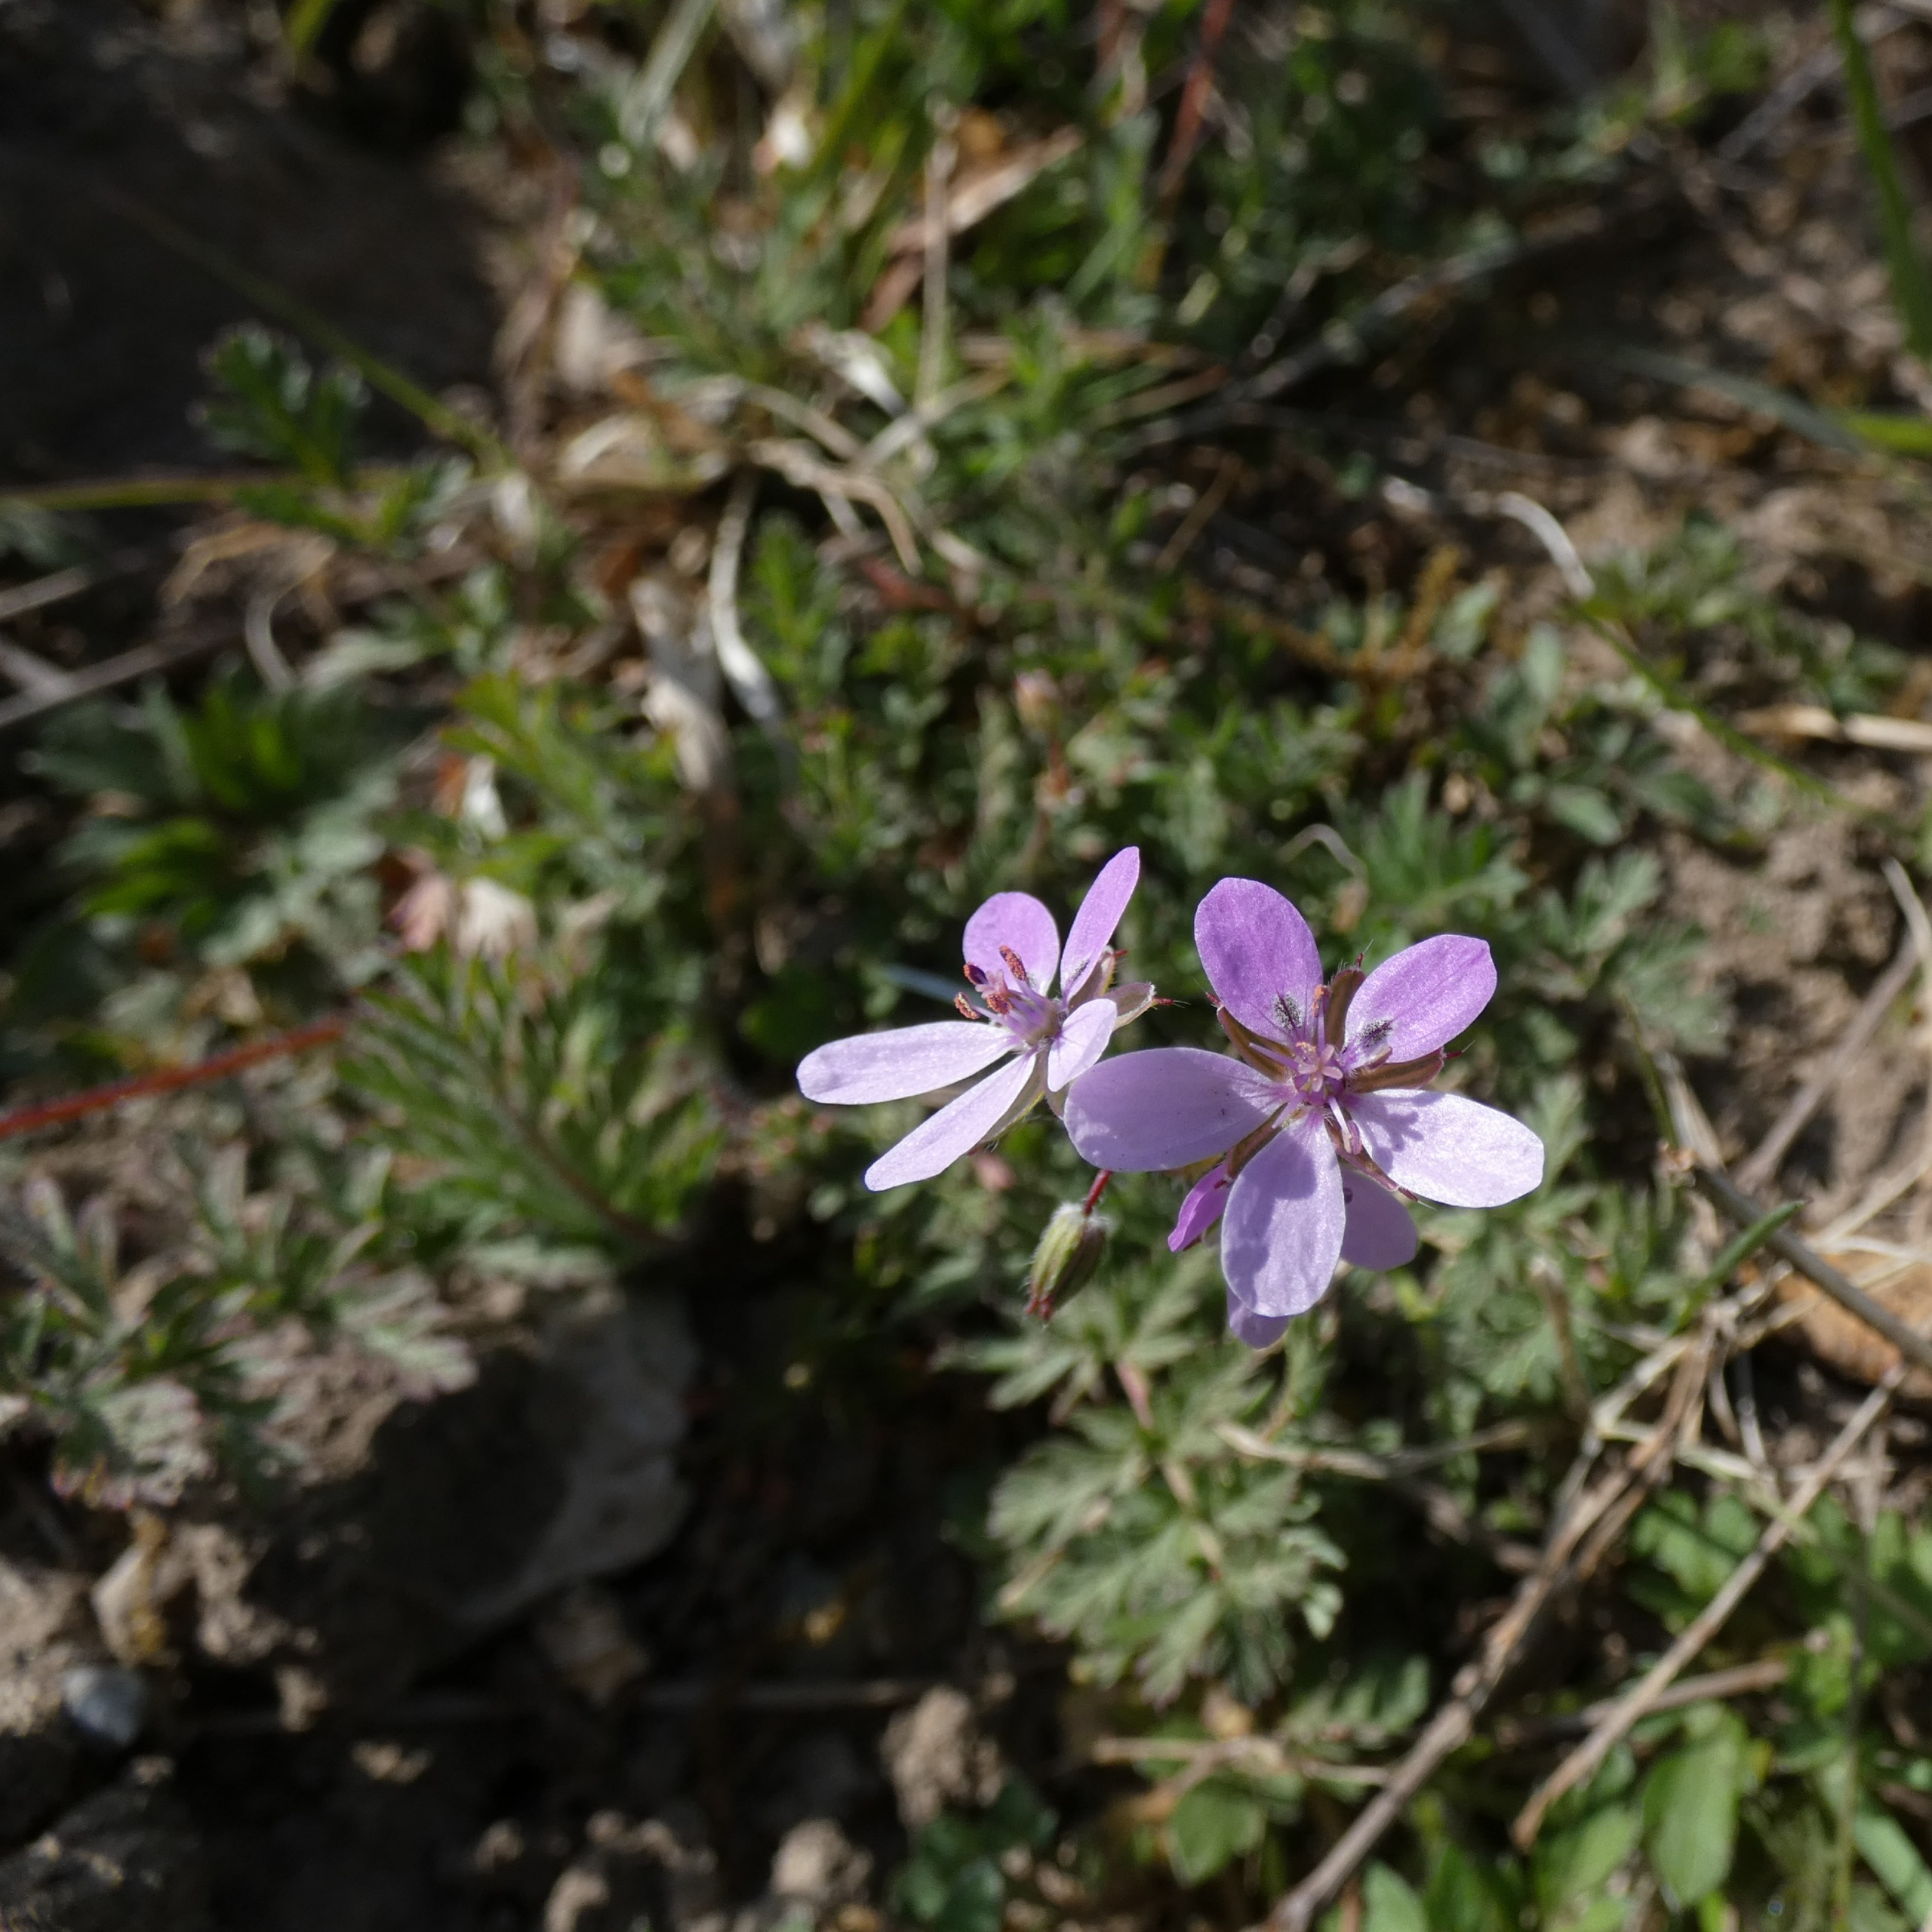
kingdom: Plantae
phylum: Tracheophyta
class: Magnoliopsida
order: Geraniales
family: Geraniaceae
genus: Erodium
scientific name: Erodium cicutarium
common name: Hejrenæb
